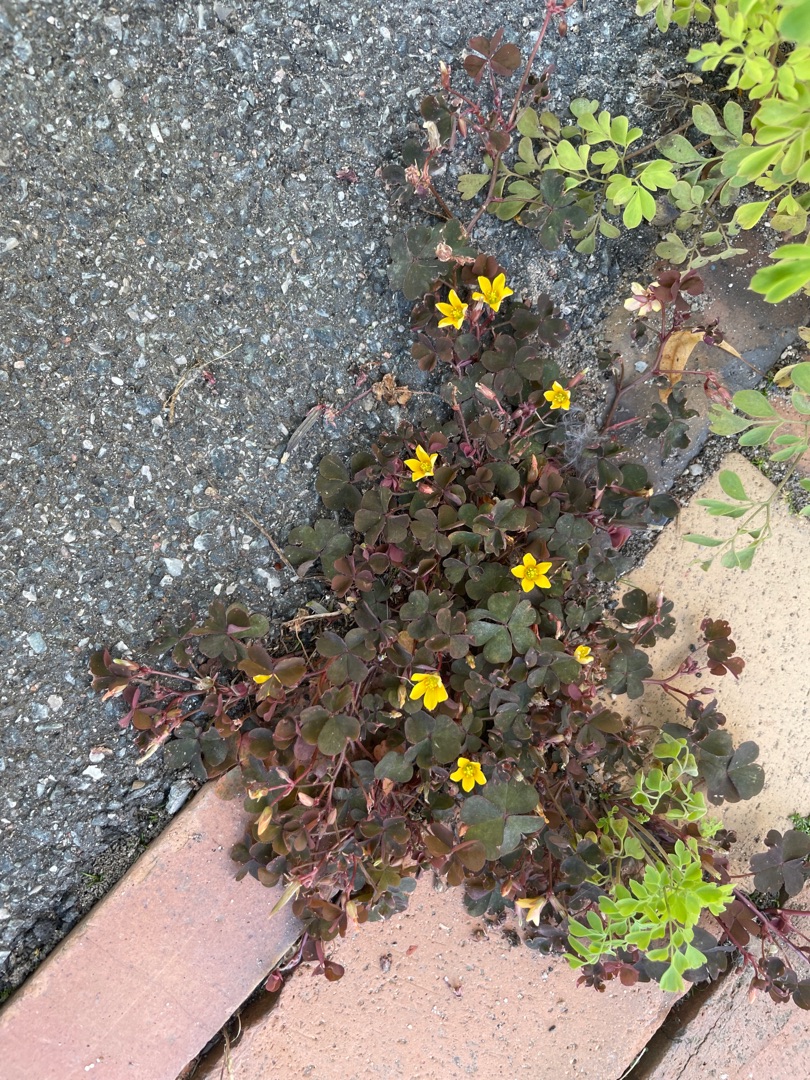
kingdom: Plantae
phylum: Tracheophyta
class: Magnoliopsida
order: Oxalidales
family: Oxalidaceae
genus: Oxalis
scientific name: Oxalis corniculata
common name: Nedliggende surkløver
